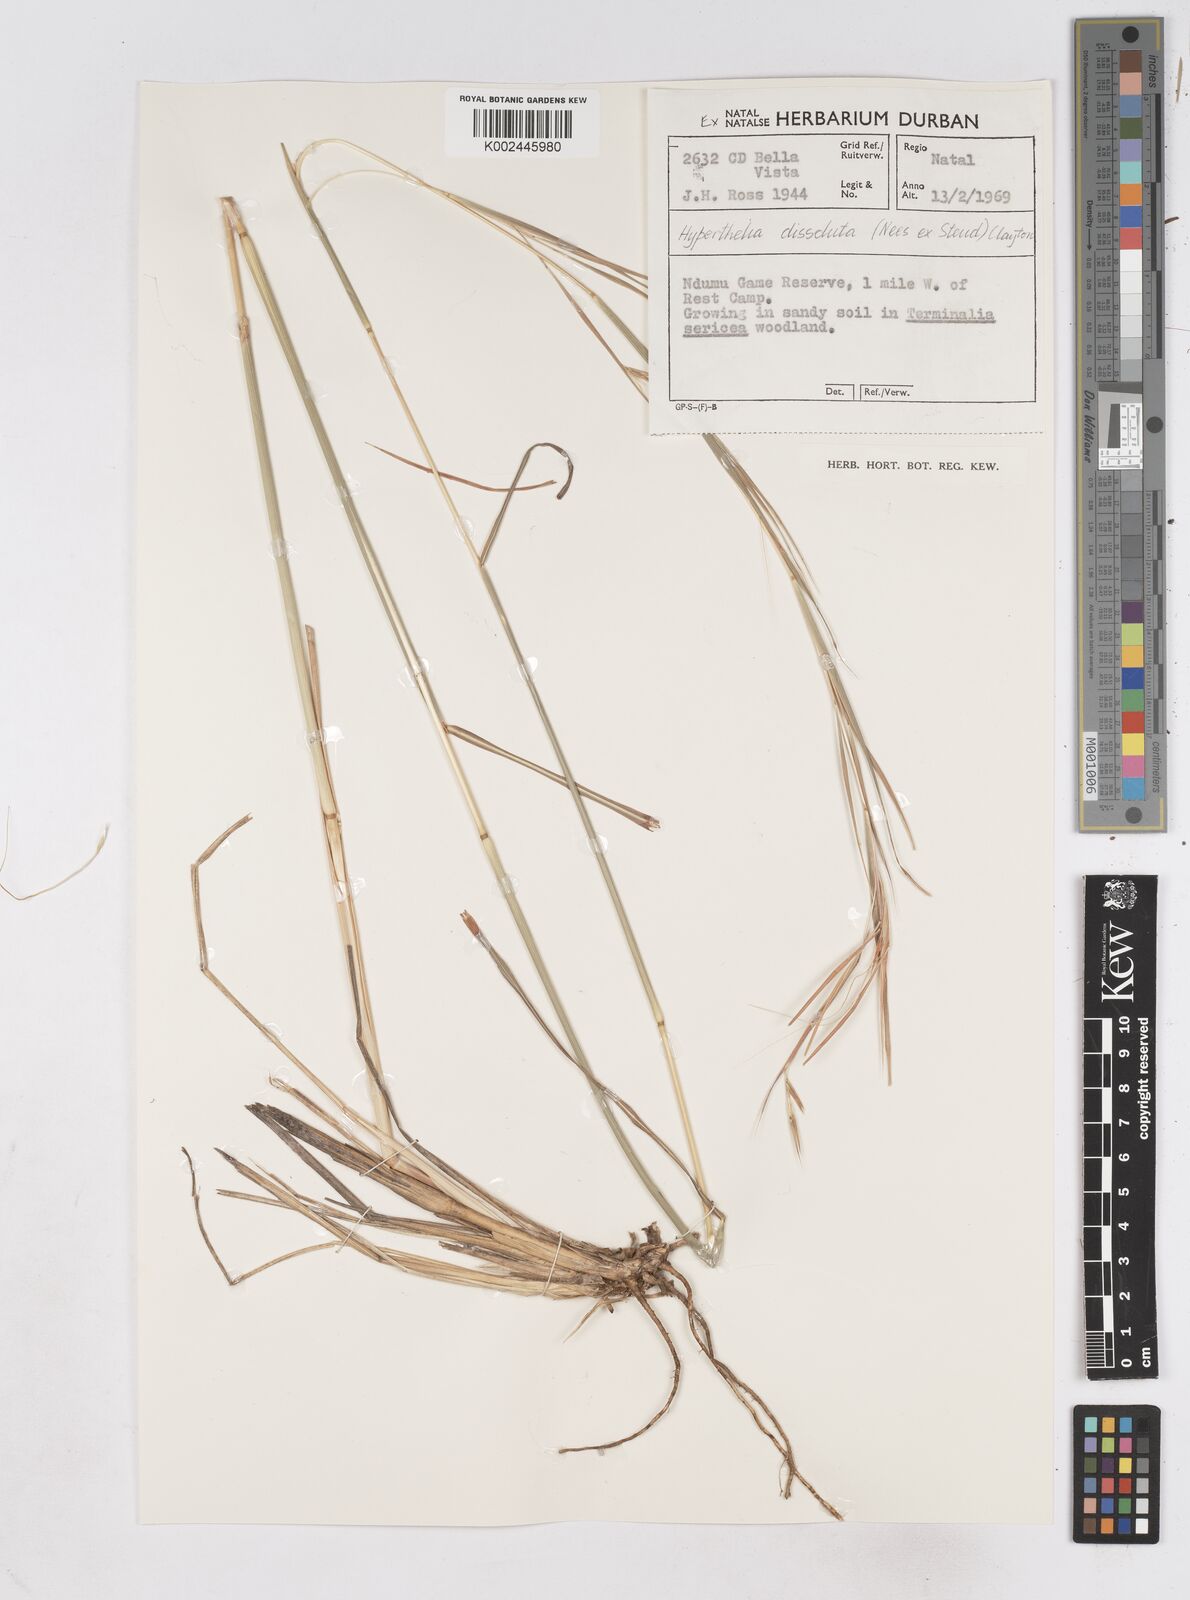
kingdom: Plantae
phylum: Tracheophyta
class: Liliopsida
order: Poales
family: Poaceae
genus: Hyperthelia
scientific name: Hyperthelia dissoluta
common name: Yellow thatching grass
